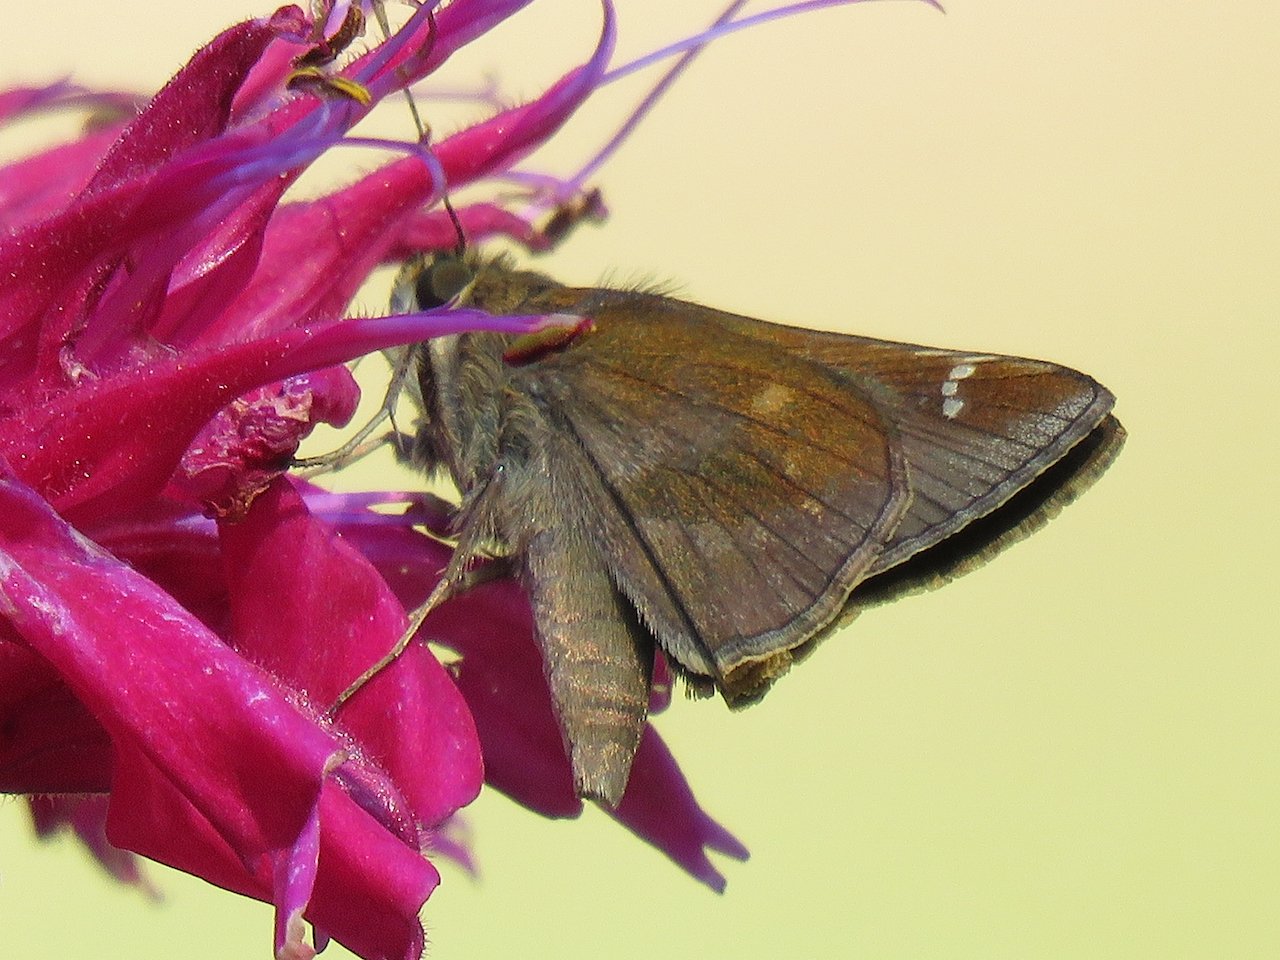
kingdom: Animalia
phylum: Arthropoda
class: Insecta
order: Lepidoptera
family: Hesperiidae
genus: Lerema
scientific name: Lerema accius
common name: Clouded Skipper
